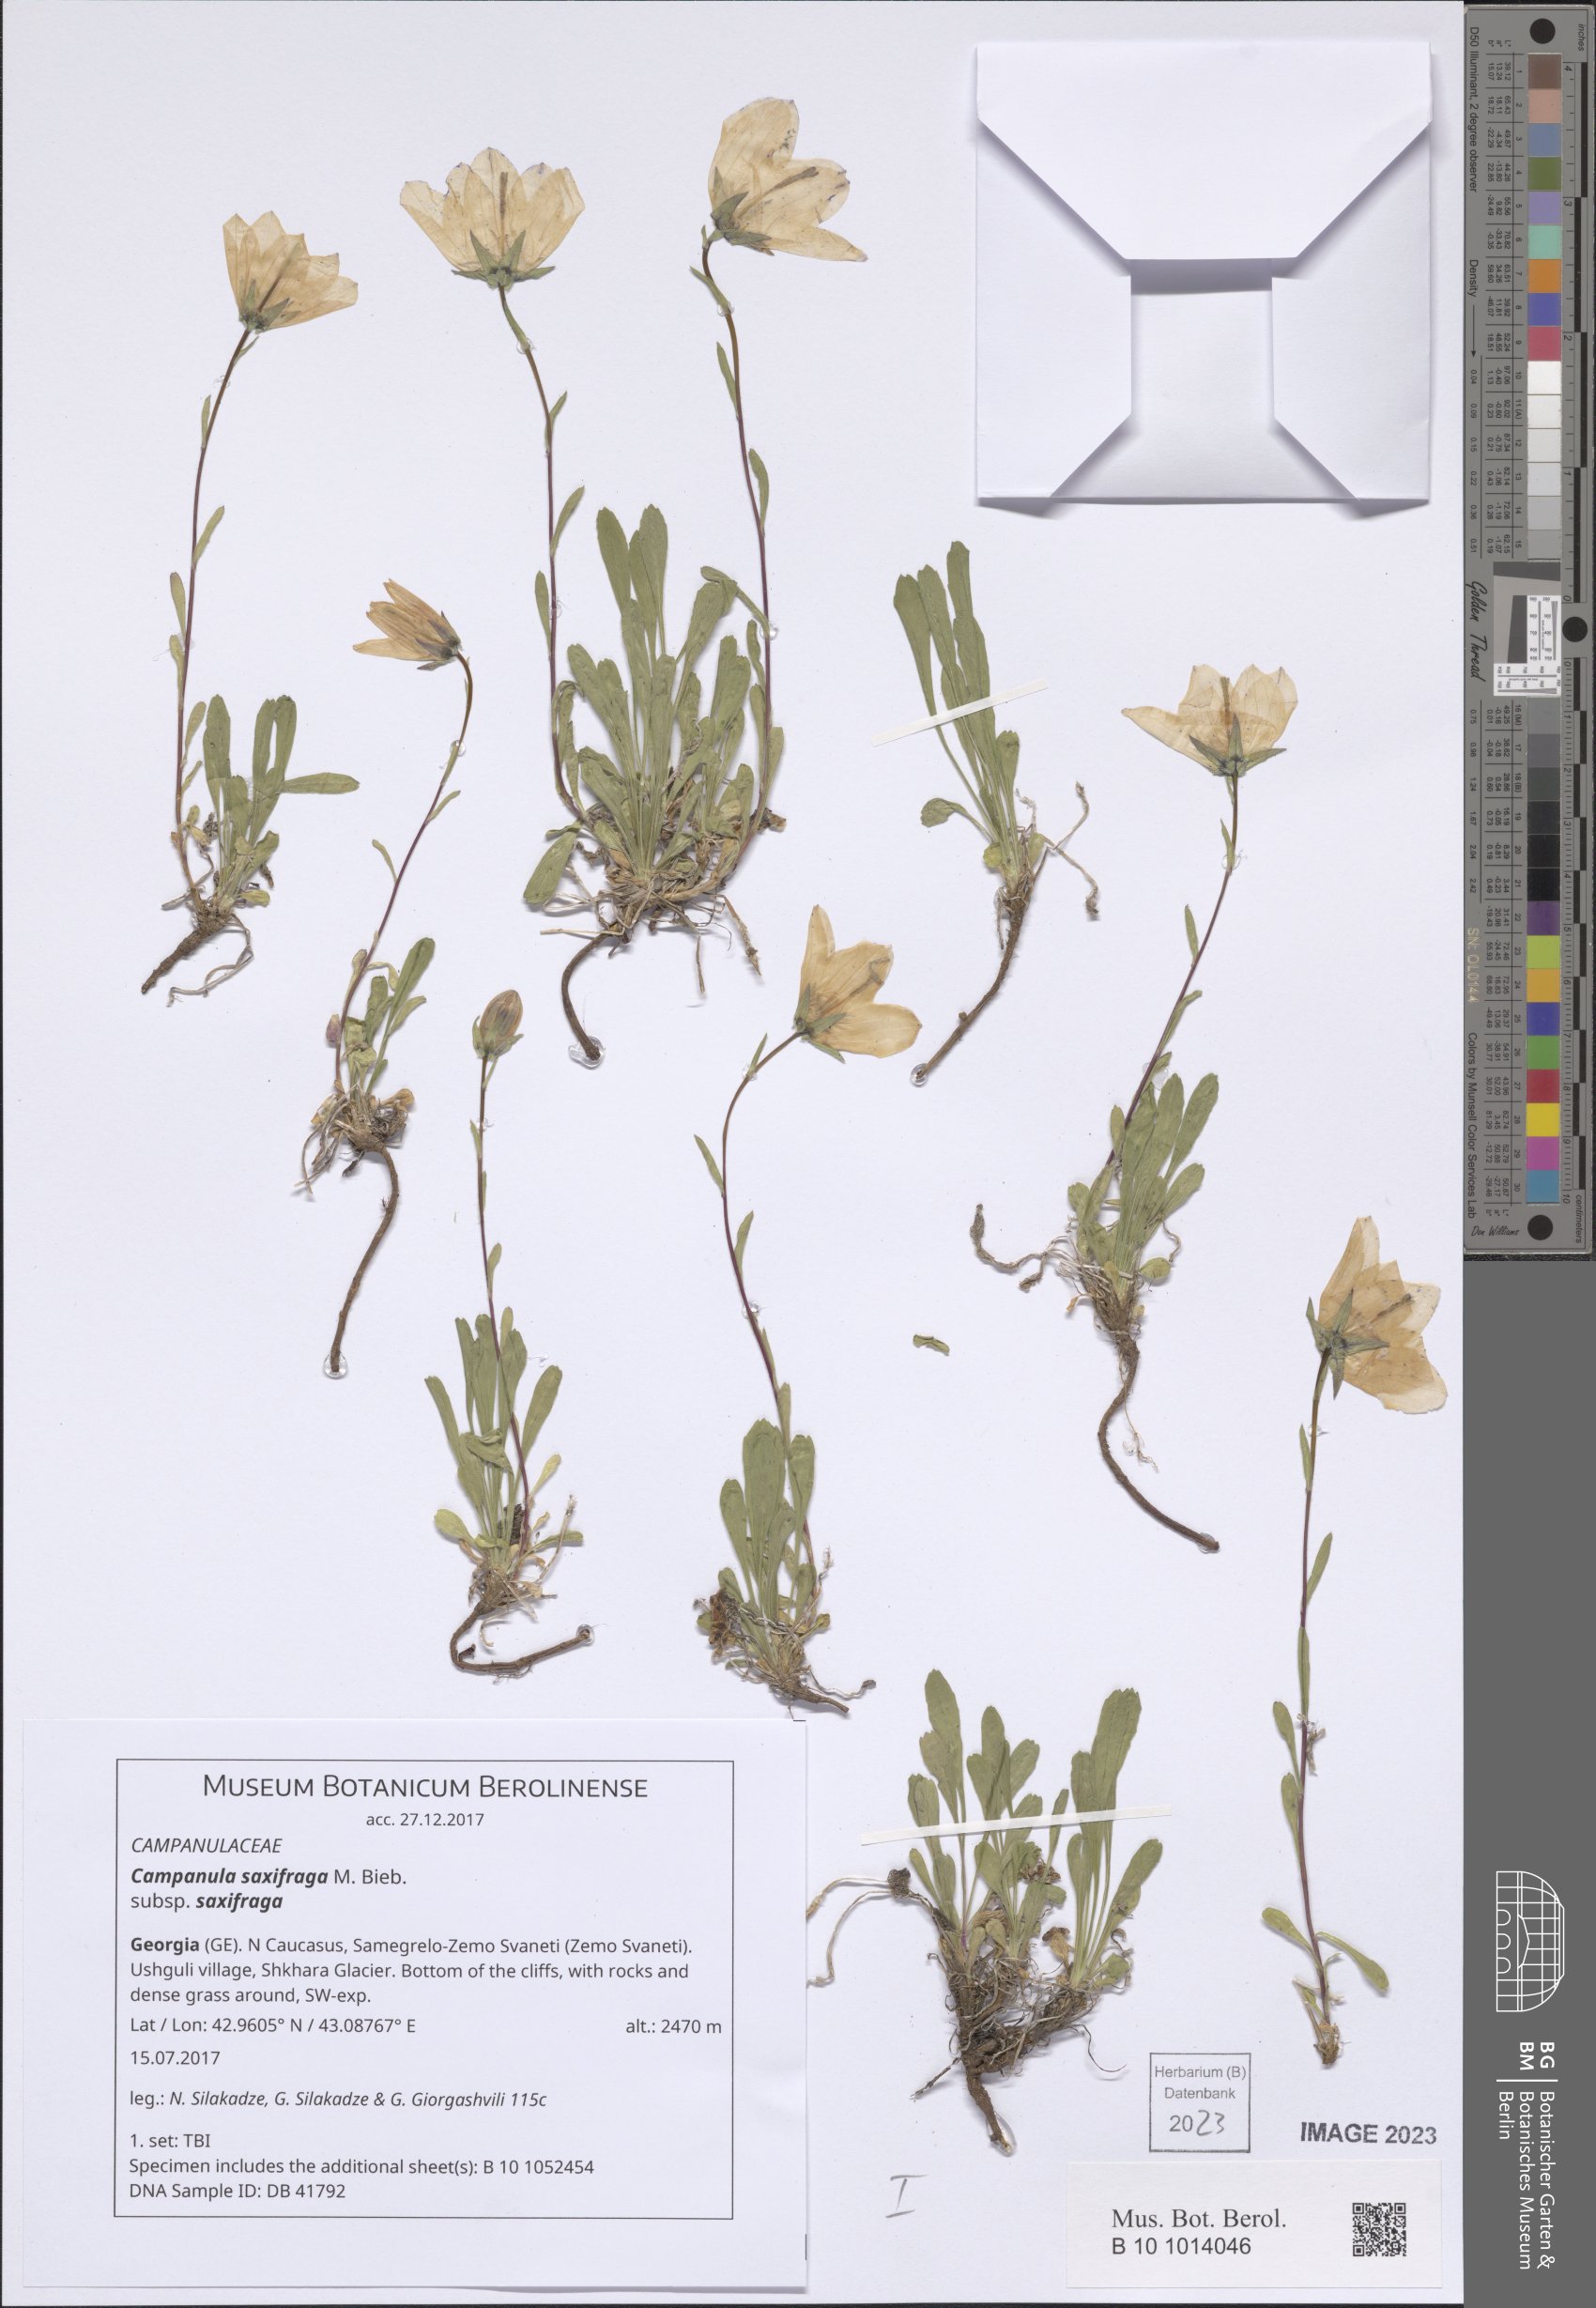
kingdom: Plantae
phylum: Tracheophyta
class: Magnoliopsida
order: Asterales
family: Campanulaceae
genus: Campanula
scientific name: Campanula saxifraga
